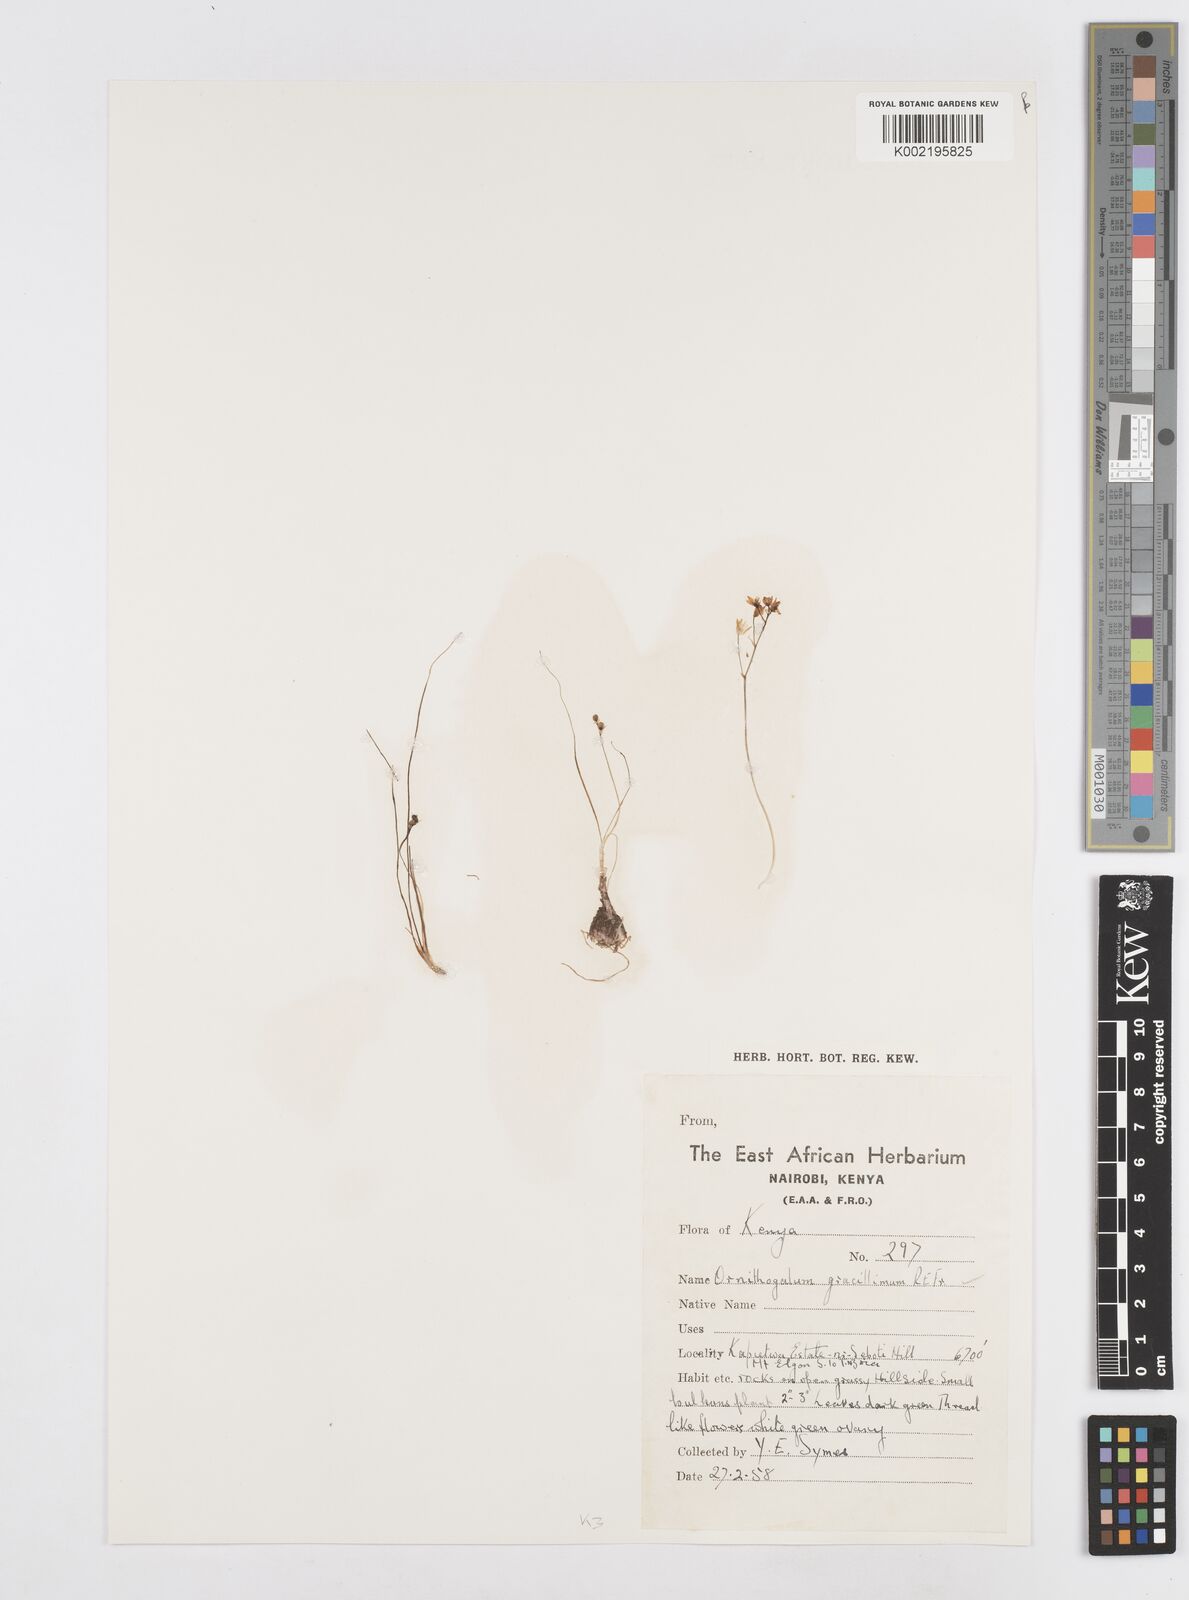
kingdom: Plantae
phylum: Tracheophyta
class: Liliopsida
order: Asparagales
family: Asparagaceae
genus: Ornithogalum
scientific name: Ornithogalum gracillimum
